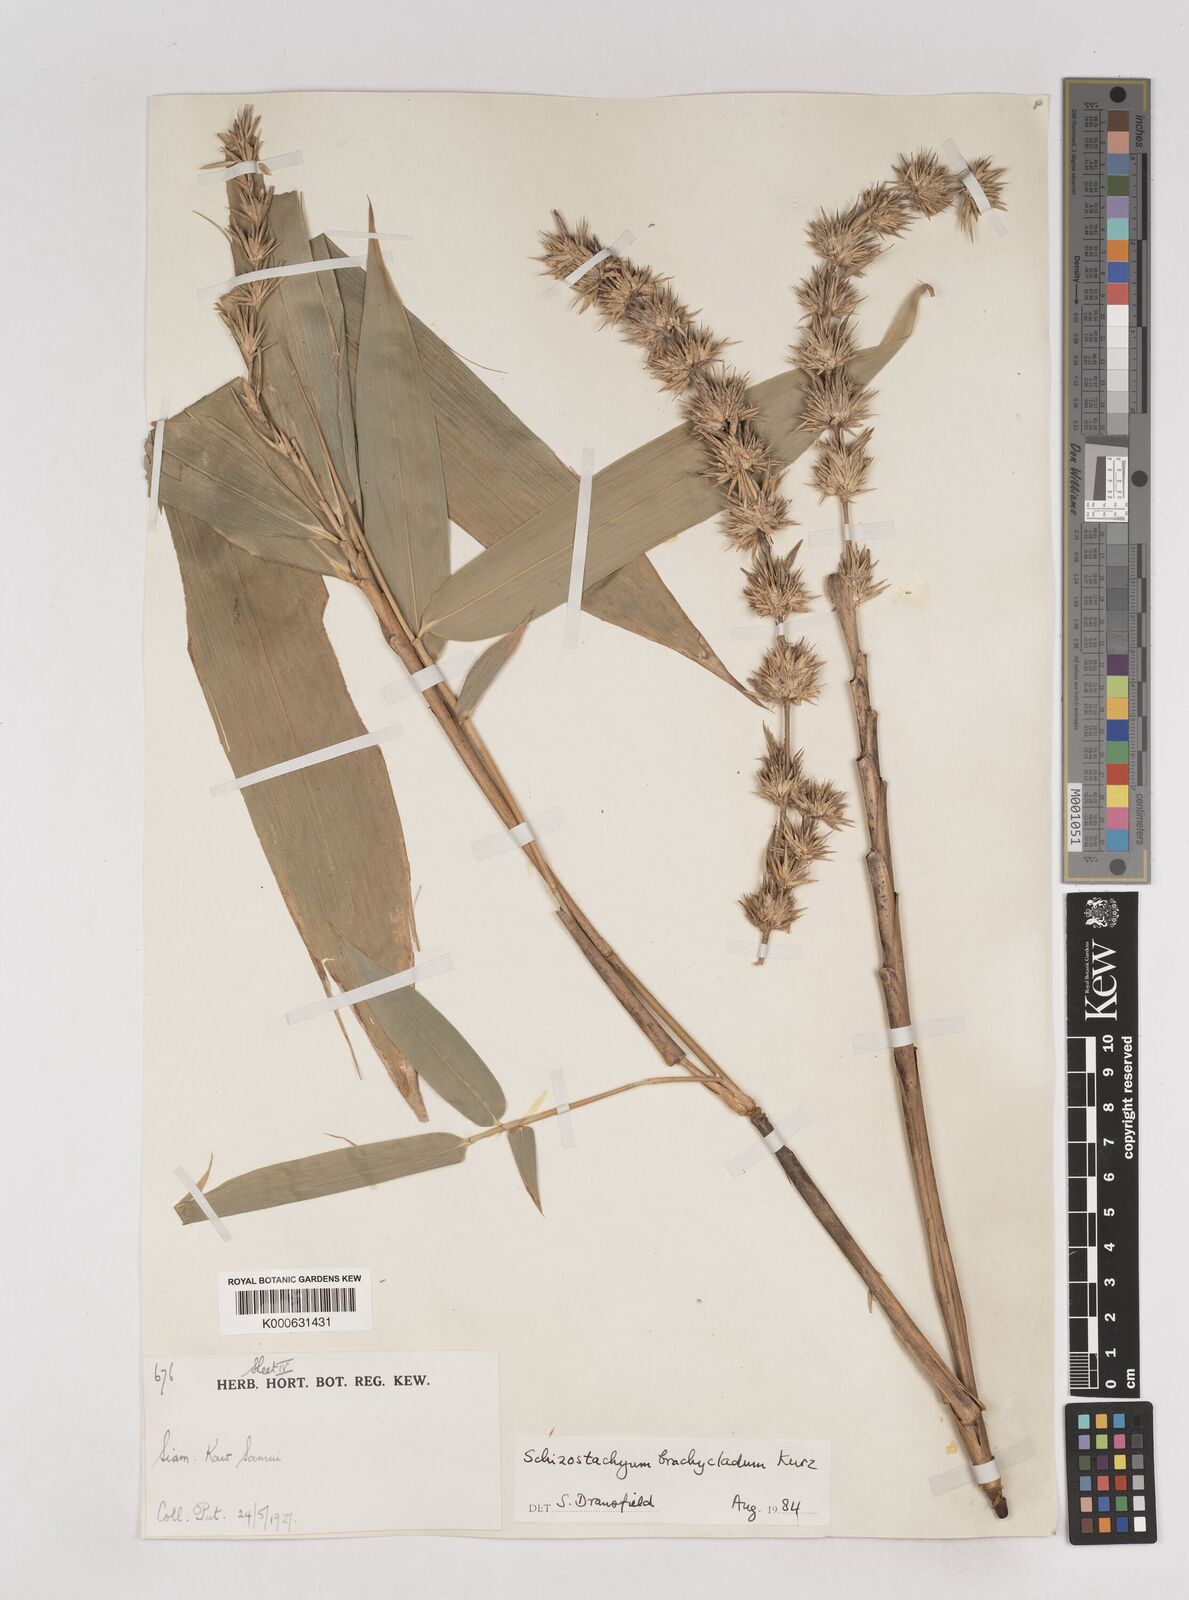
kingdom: Plantae
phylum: Tracheophyta
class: Liliopsida
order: Poales
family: Poaceae
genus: Schizostachyum
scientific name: Schizostachyum brachycladum
